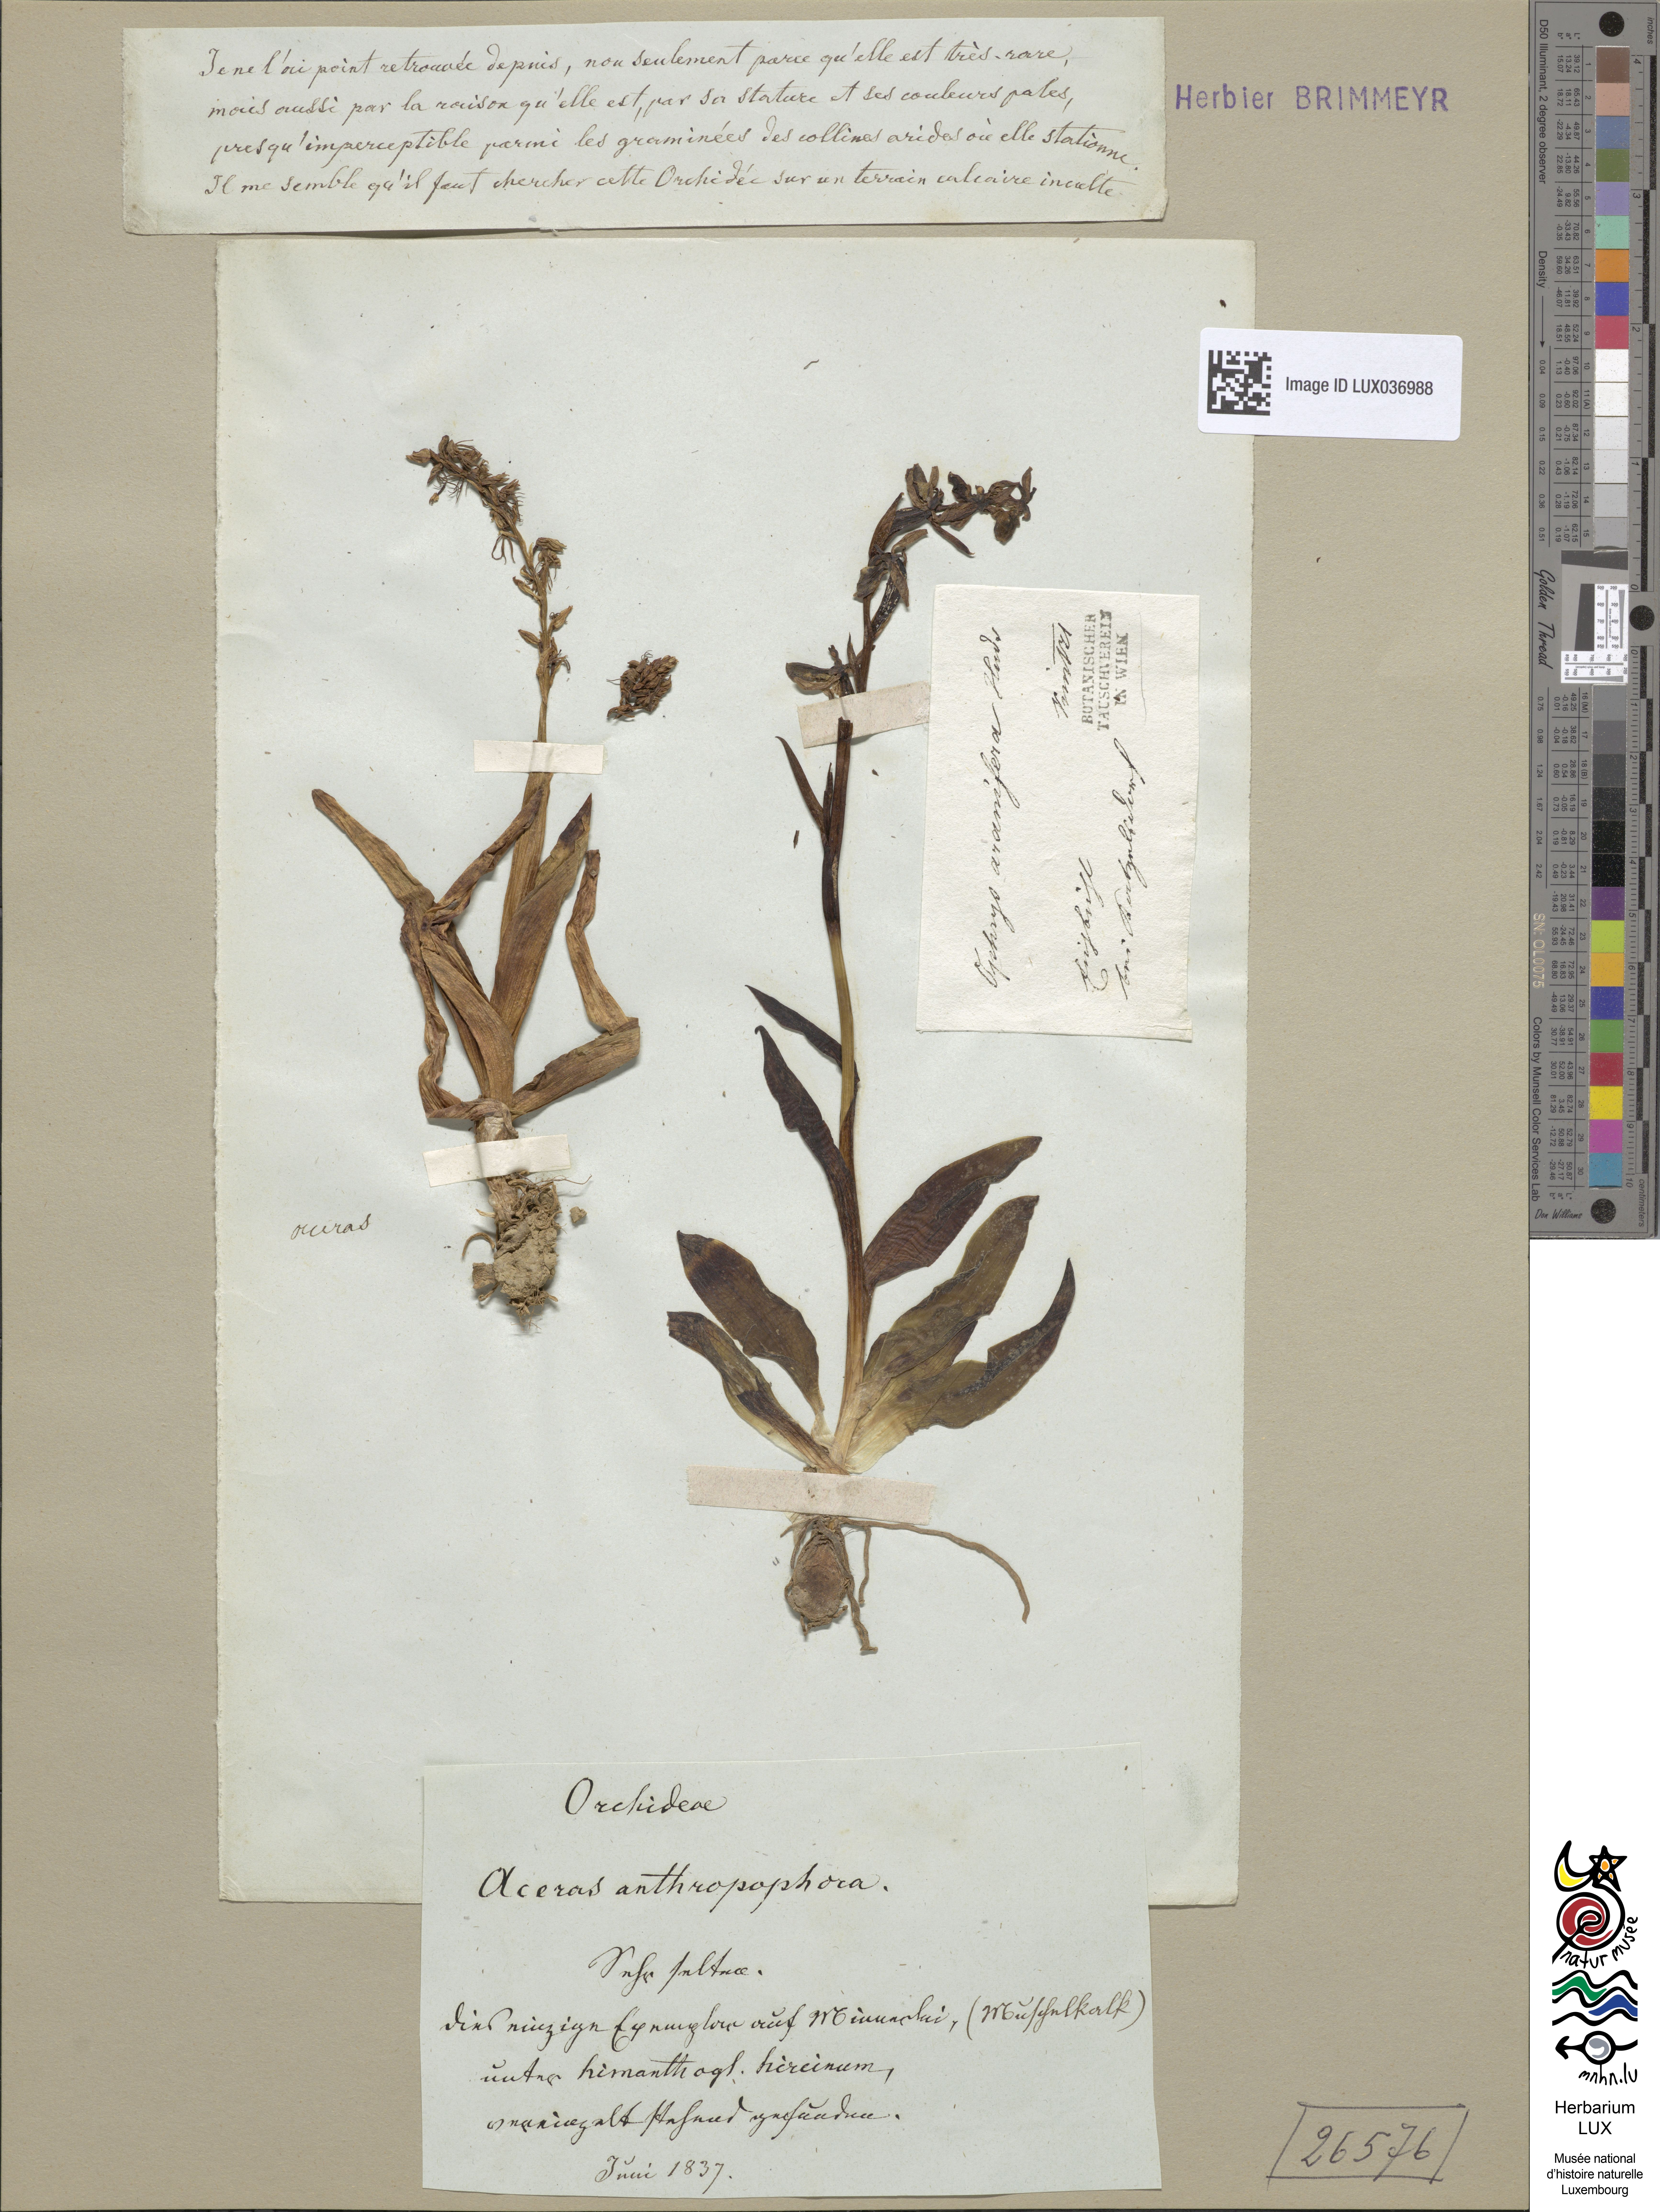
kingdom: Plantae
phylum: Tracheophyta
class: Liliopsida
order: Asparagales
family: Orchidaceae
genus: Orchis
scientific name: Orchis anthropophora
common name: Man orchid
